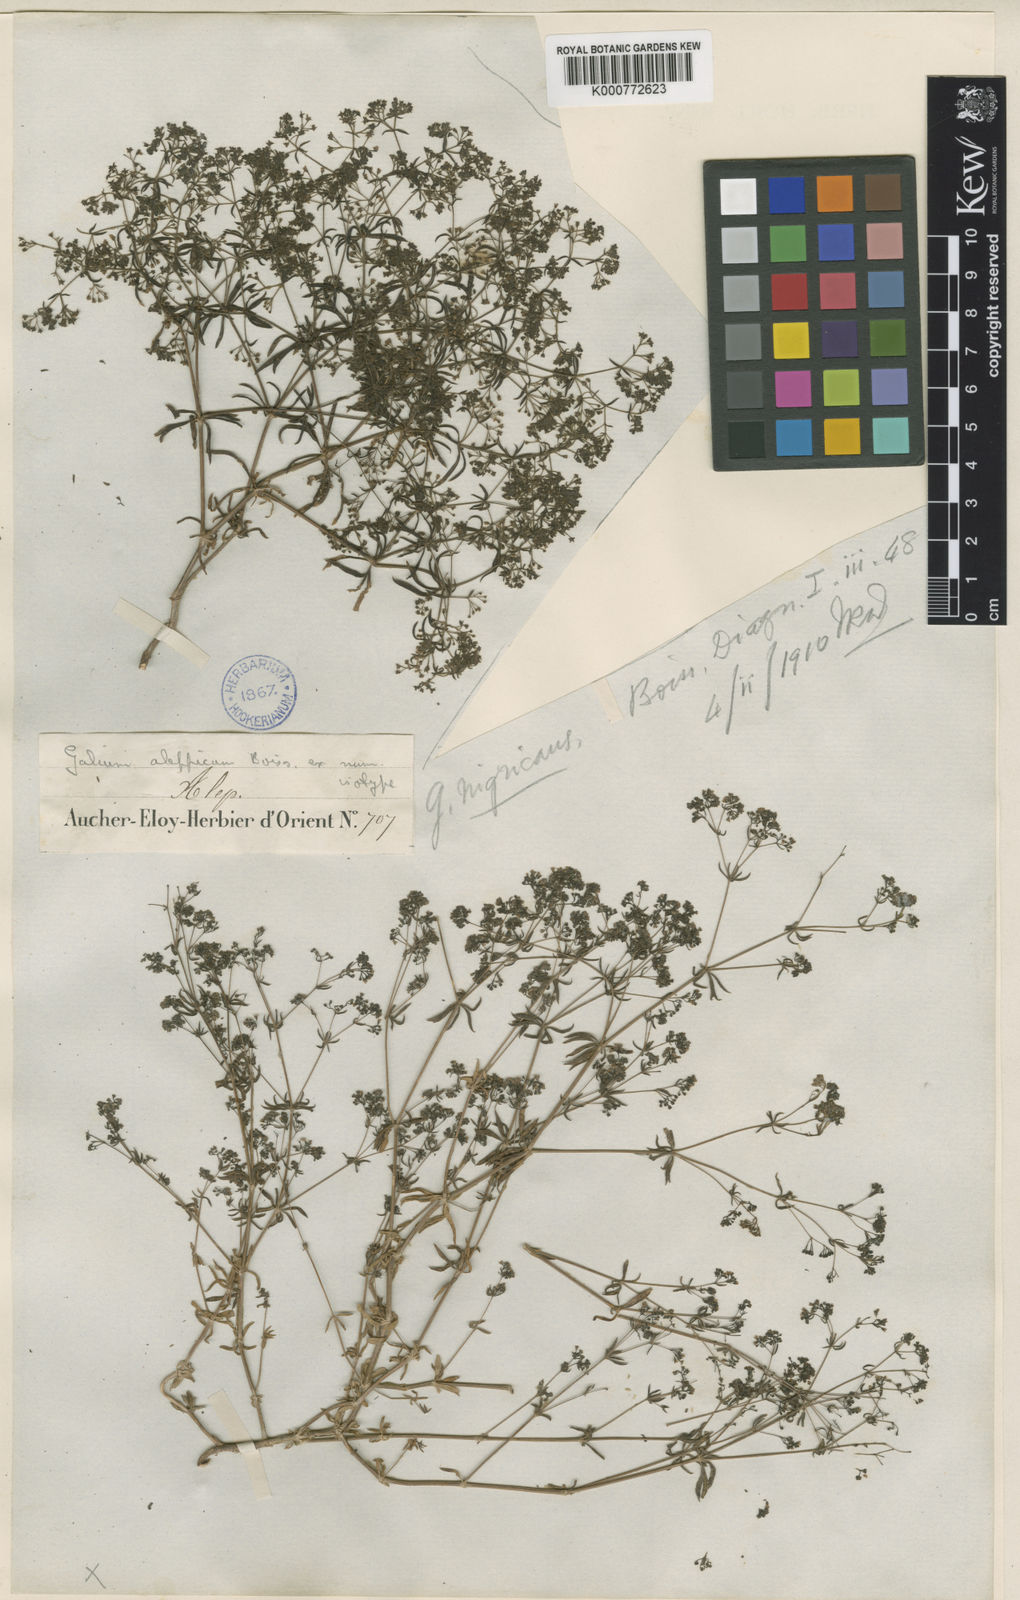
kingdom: Plantae
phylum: Tracheophyta
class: Magnoliopsida
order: Gentianales
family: Rubiaceae
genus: Galium
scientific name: Galium nigricans
